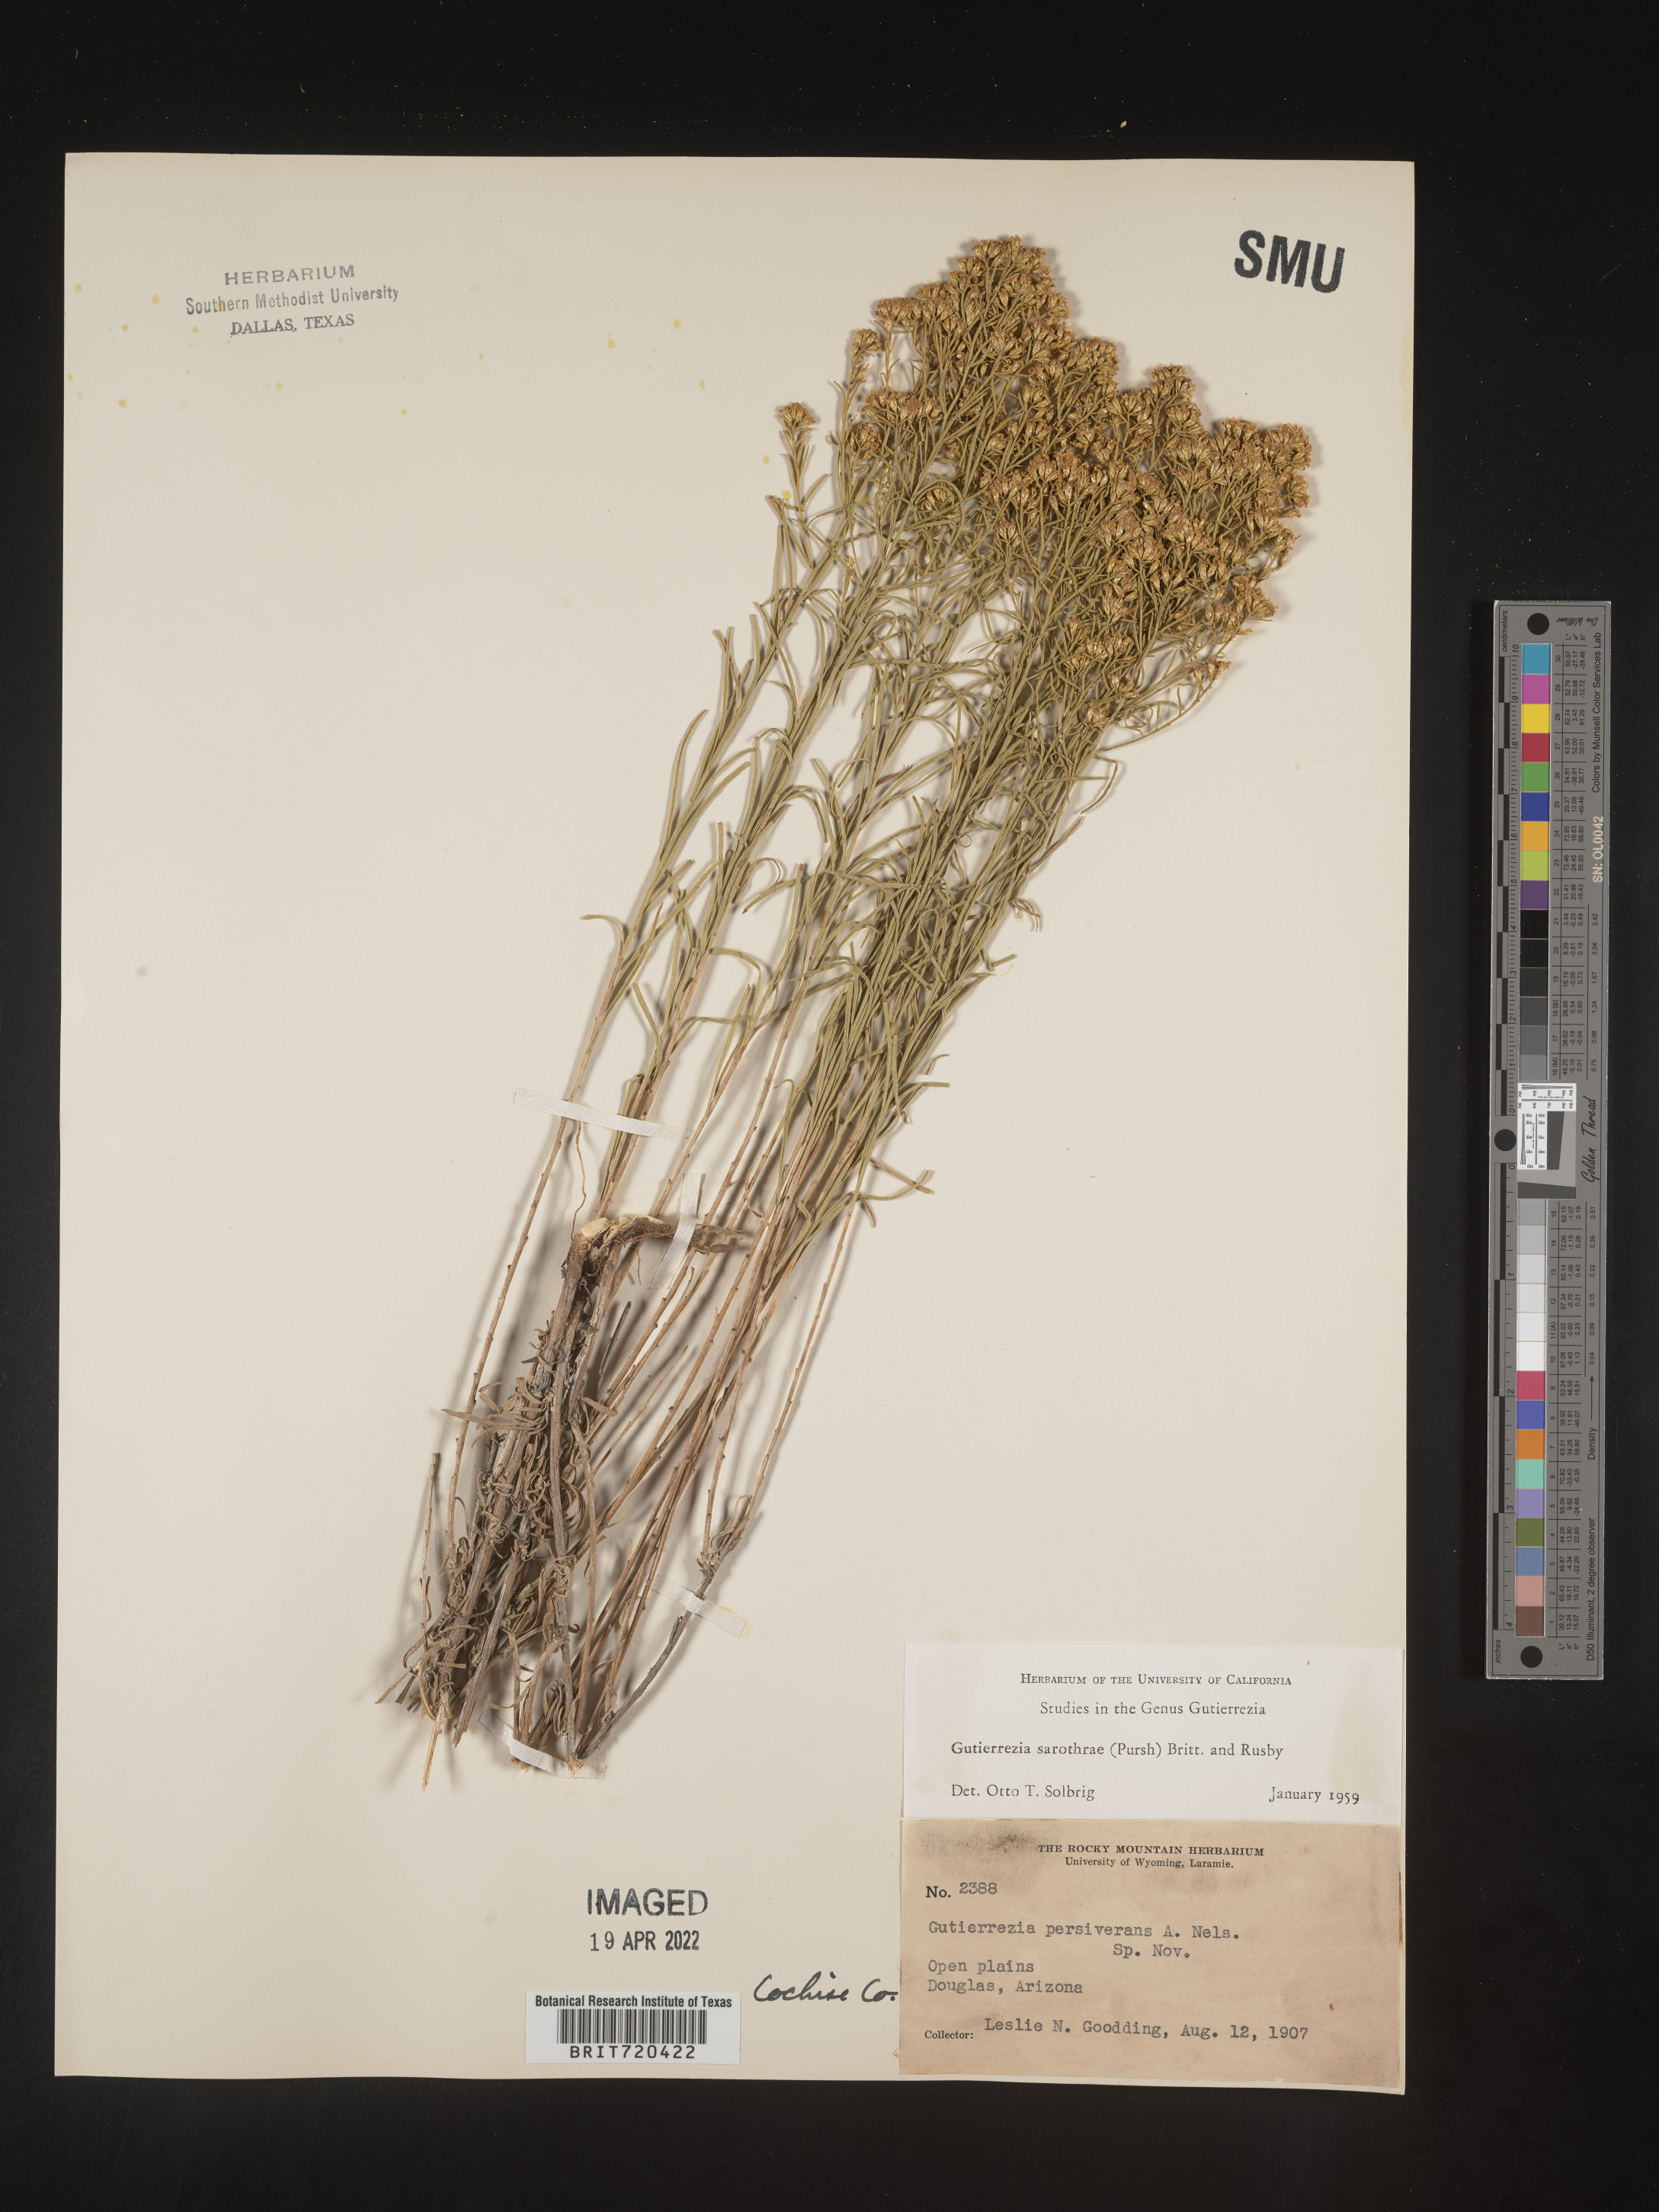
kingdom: Plantae
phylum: Tracheophyta
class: Magnoliopsida
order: Asterales
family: Asteraceae
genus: Gutierrezia
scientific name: Gutierrezia sarothrae
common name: Broom snakeweed
